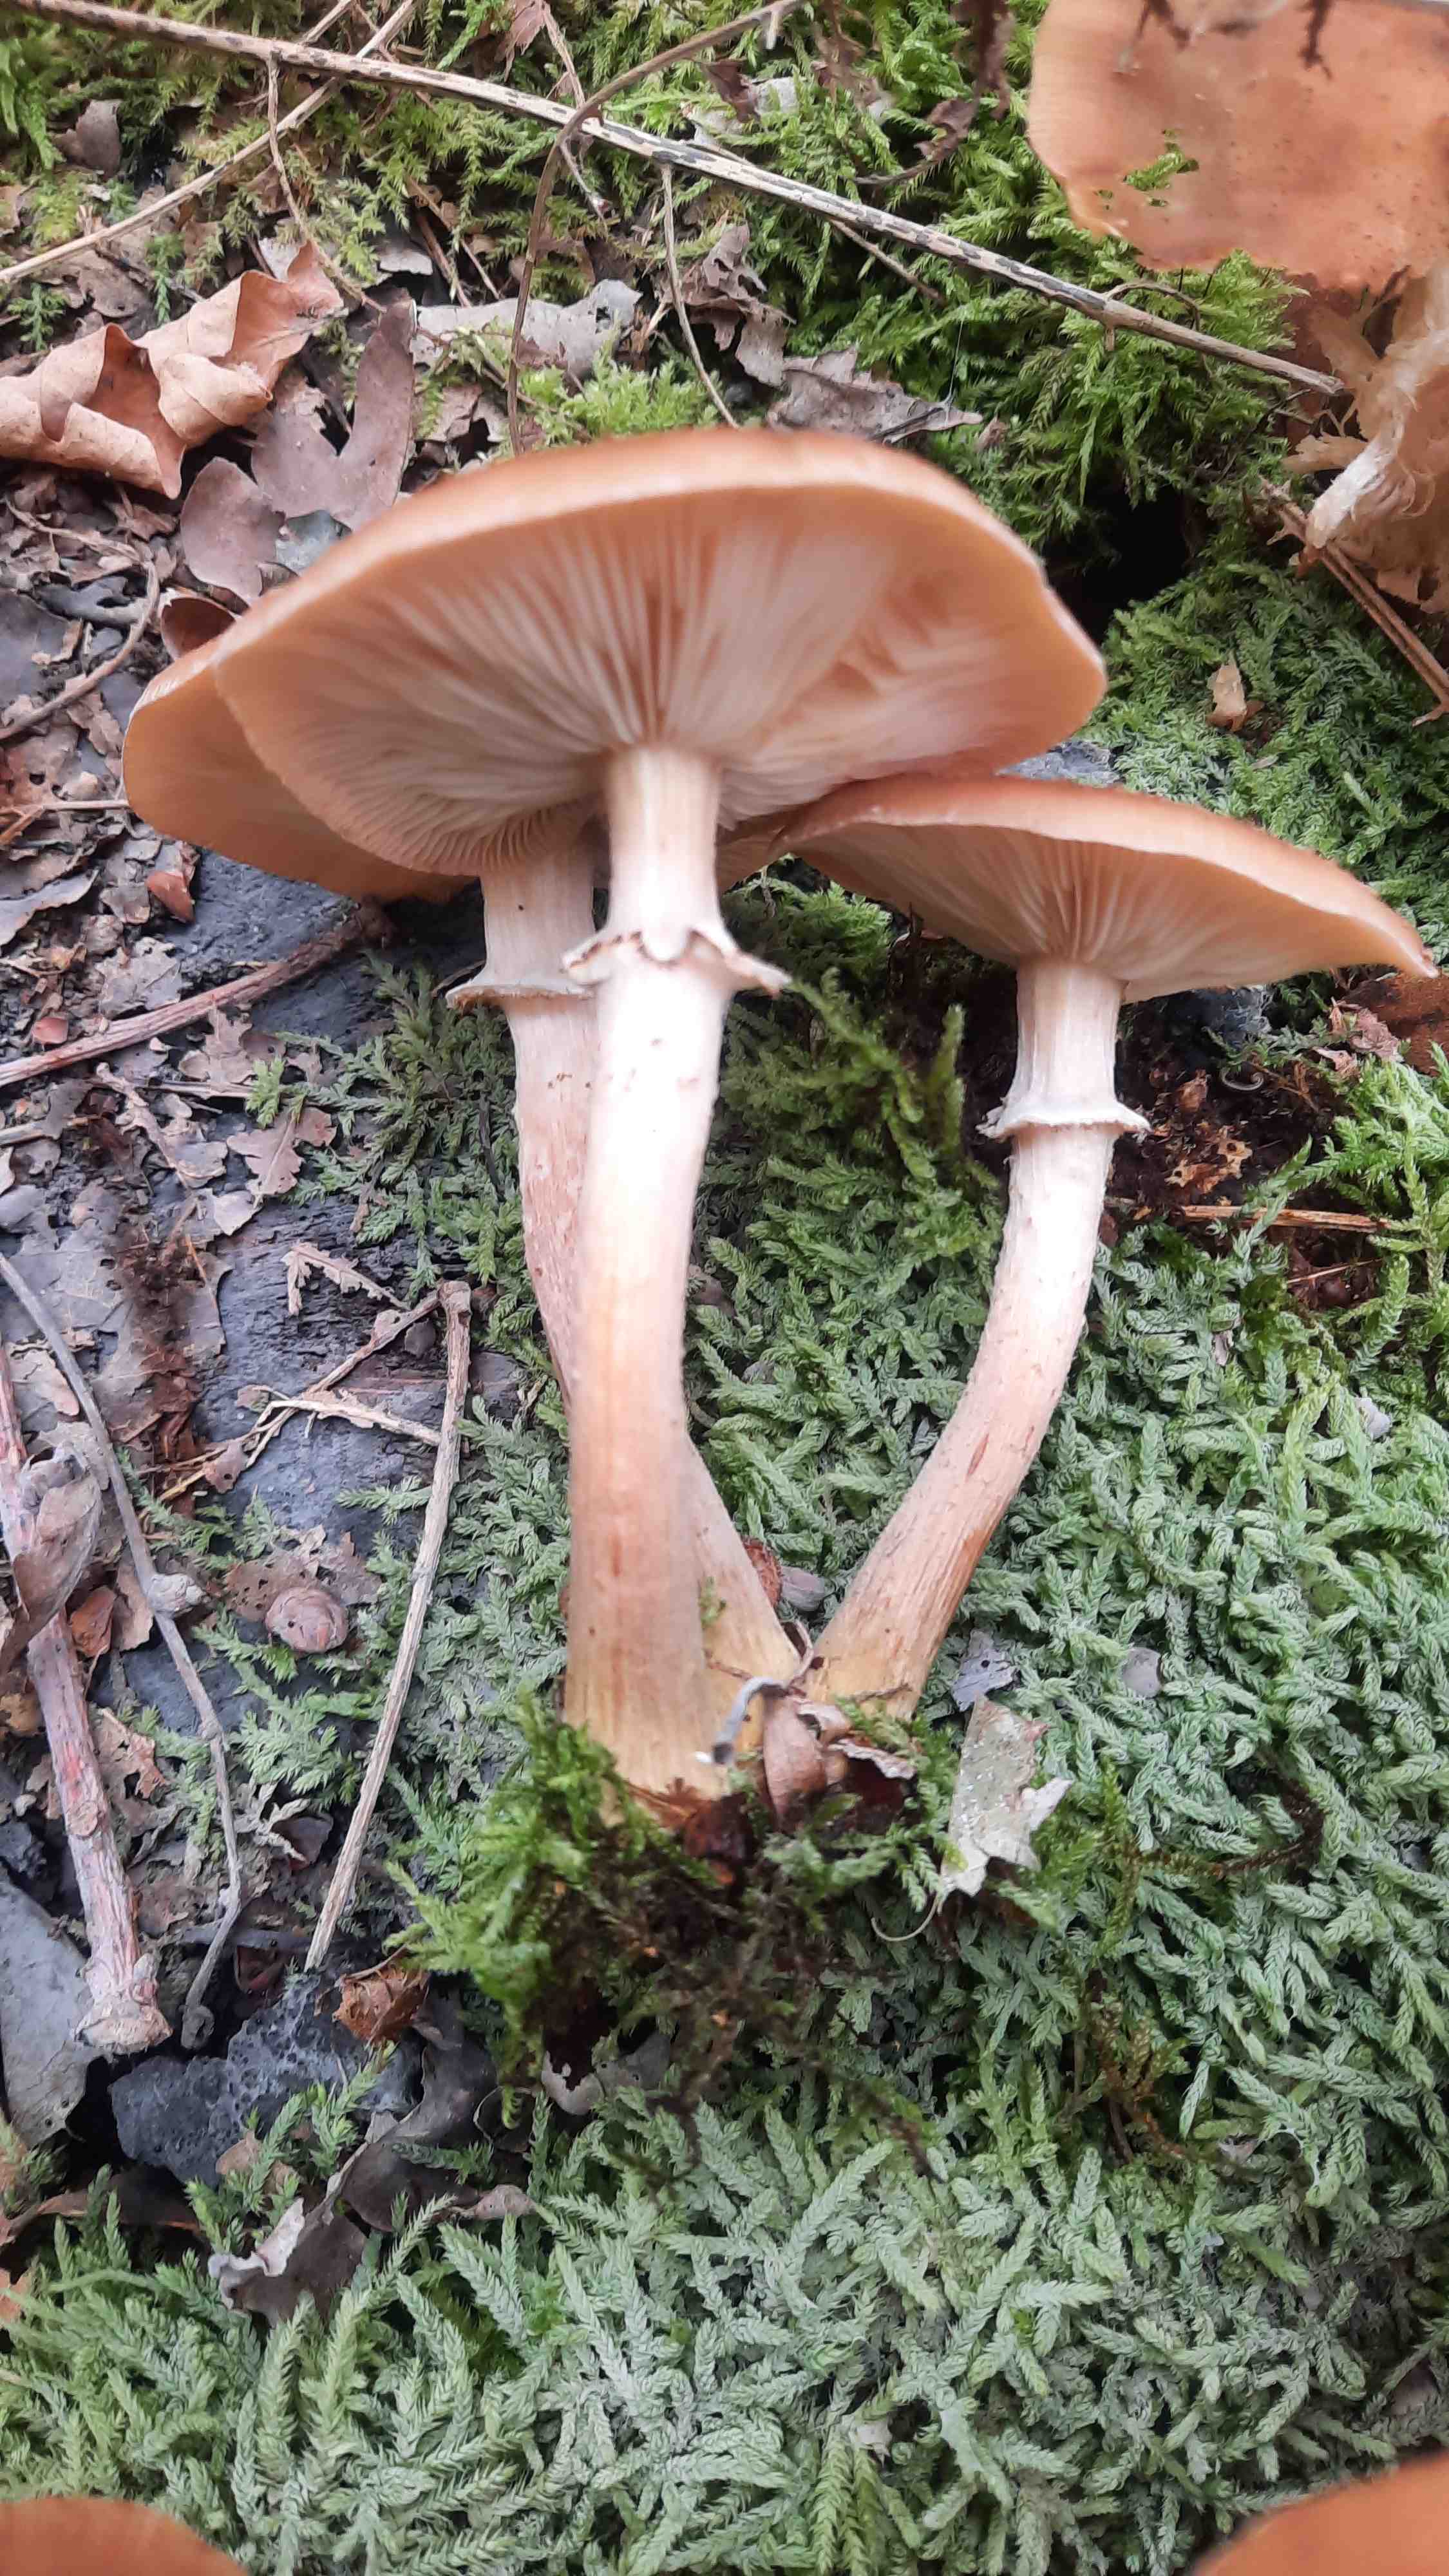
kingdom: Fungi
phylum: Basidiomycota
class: Agaricomycetes
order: Agaricales
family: Physalacriaceae
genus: Armillaria
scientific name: Armillaria lutea
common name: køllestokket honningsvamp
